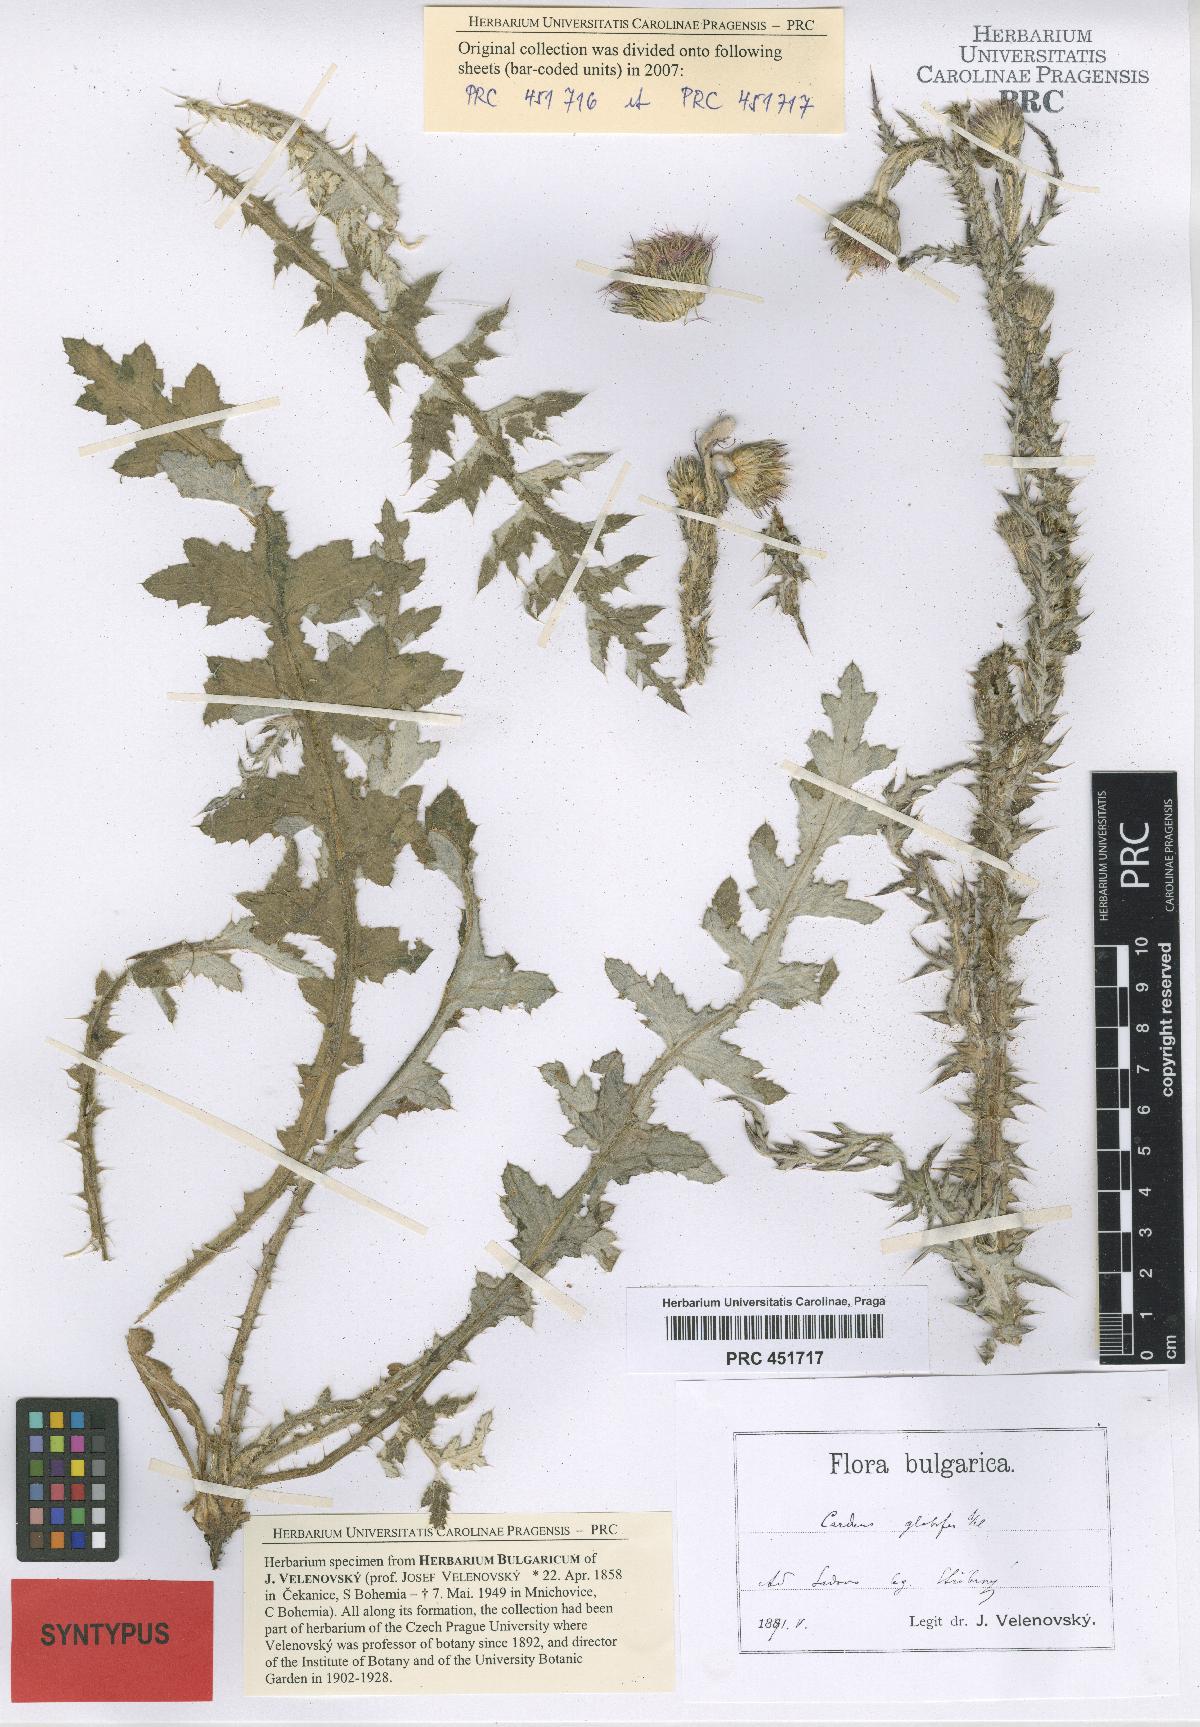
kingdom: Plantae
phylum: Tracheophyta
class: Magnoliopsida
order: Asterales
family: Asteraceae
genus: Carduus
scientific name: Carduus candicans
